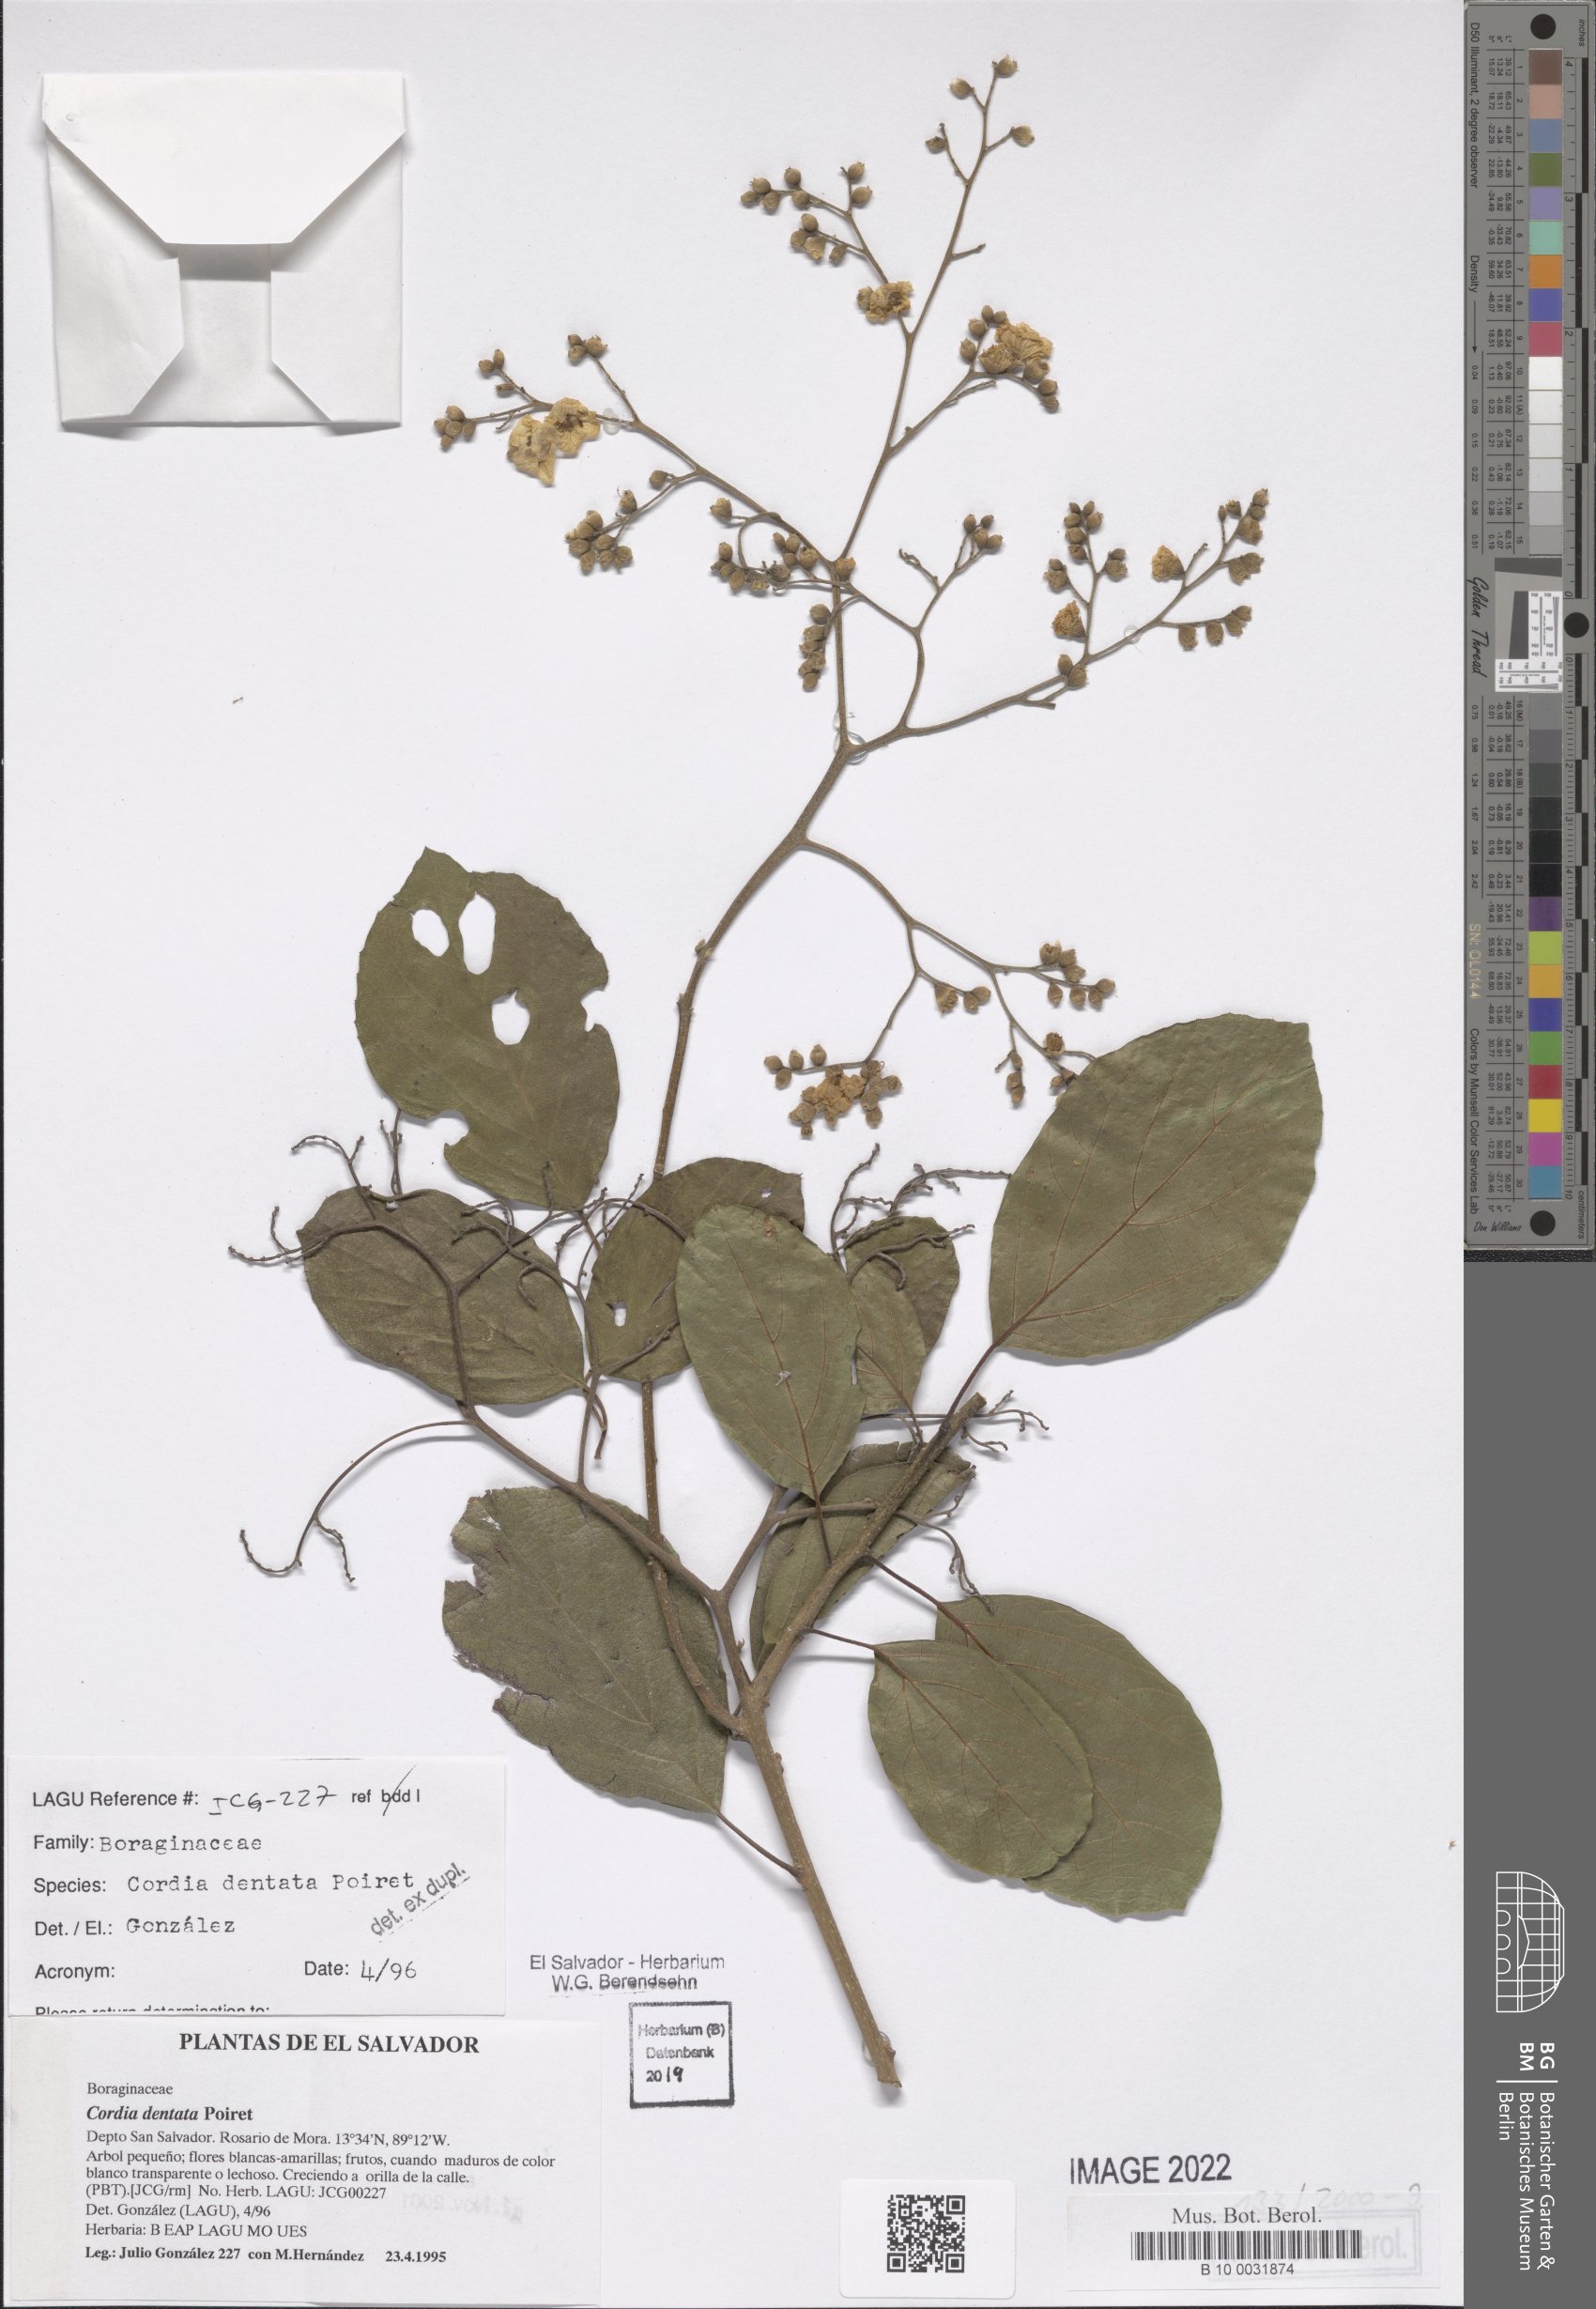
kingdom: Plantae
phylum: Tracheophyta
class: Magnoliopsida
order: Boraginales
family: Cordiaceae
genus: Cordia
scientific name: Cordia dentata
